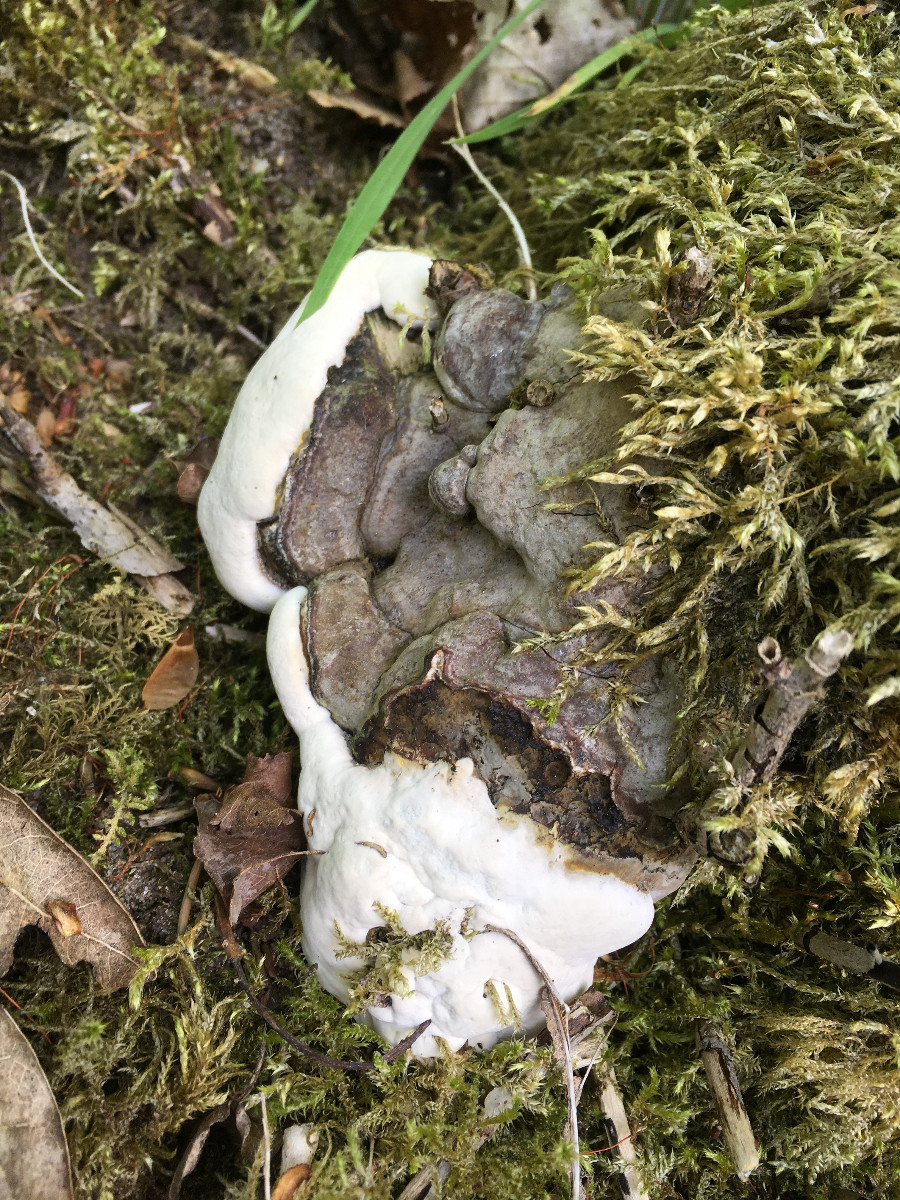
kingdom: Fungi
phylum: Basidiomycota
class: Agaricomycetes
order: Polyporales
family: Polyporaceae
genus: Ganoderma
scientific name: Ganoderma applanatum
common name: flad lakporesvamp
